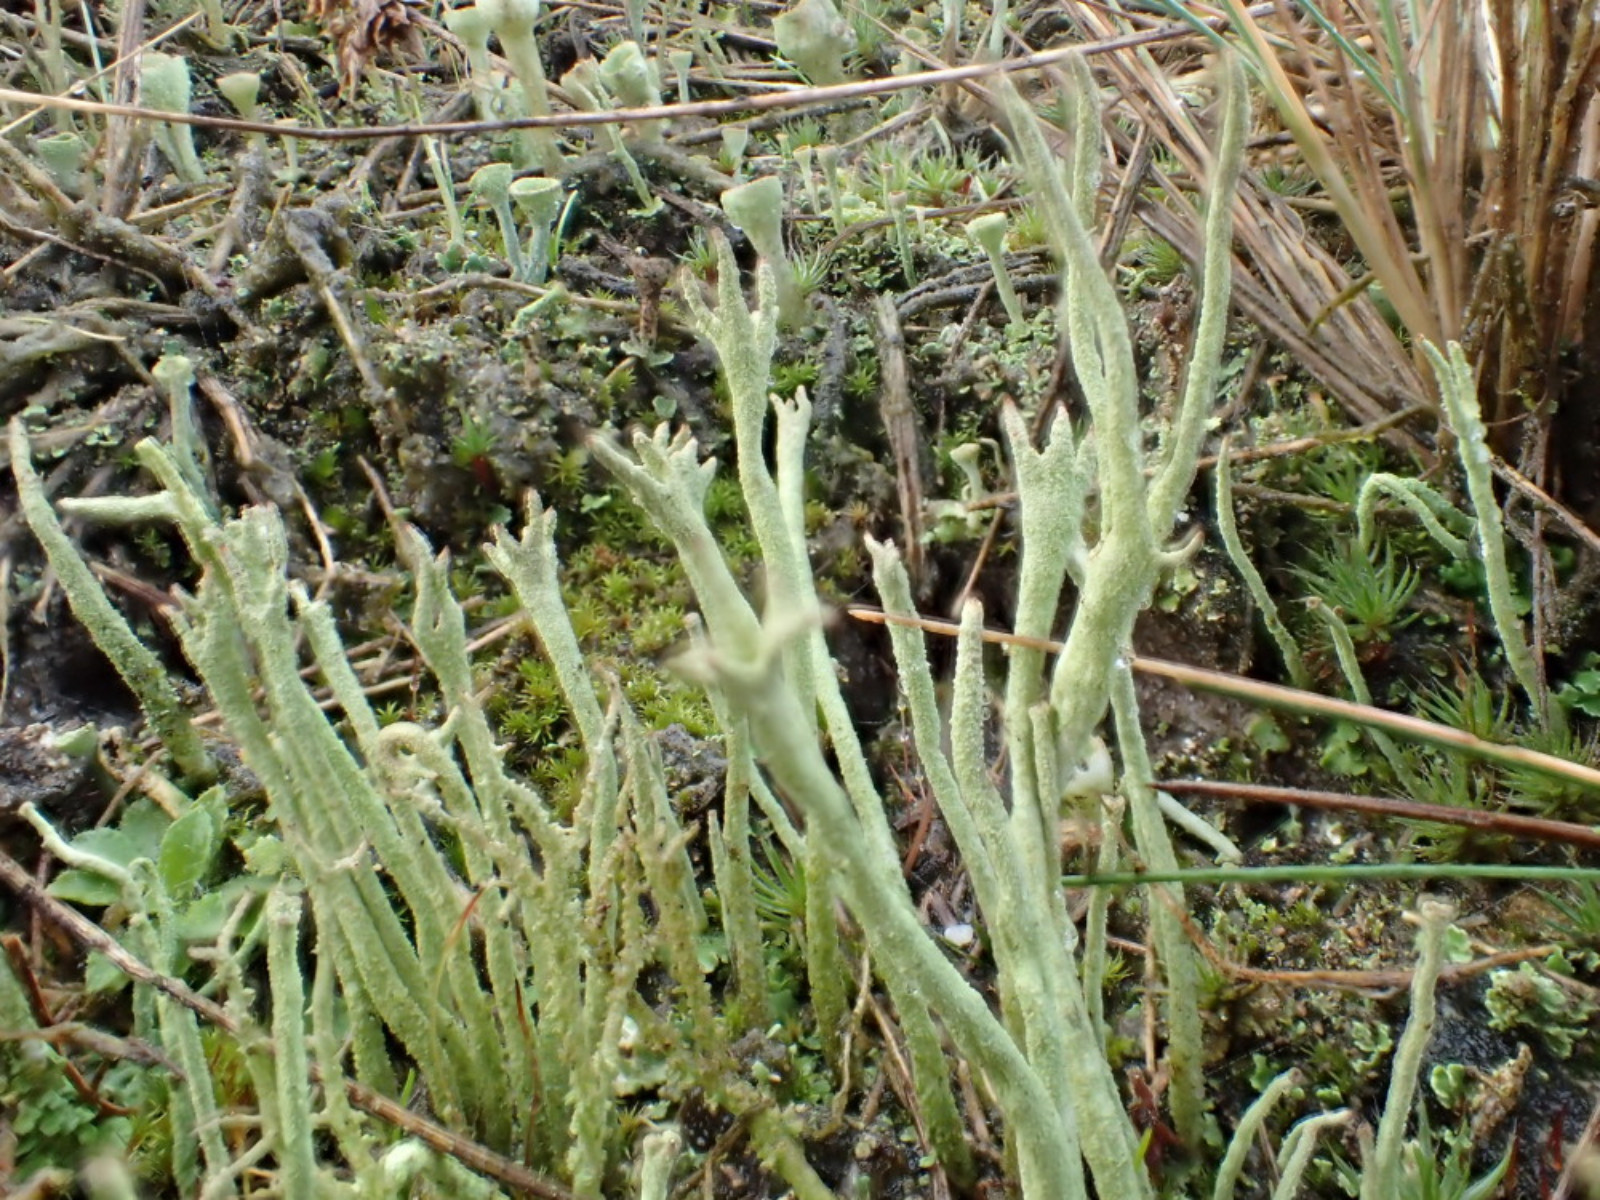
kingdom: Fungi
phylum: Ascomycota
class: Lecanoromycetes
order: Lecanorales
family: Cladoniaceae
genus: Cladonia
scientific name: Cladonia subulata
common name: spids bægerlav
